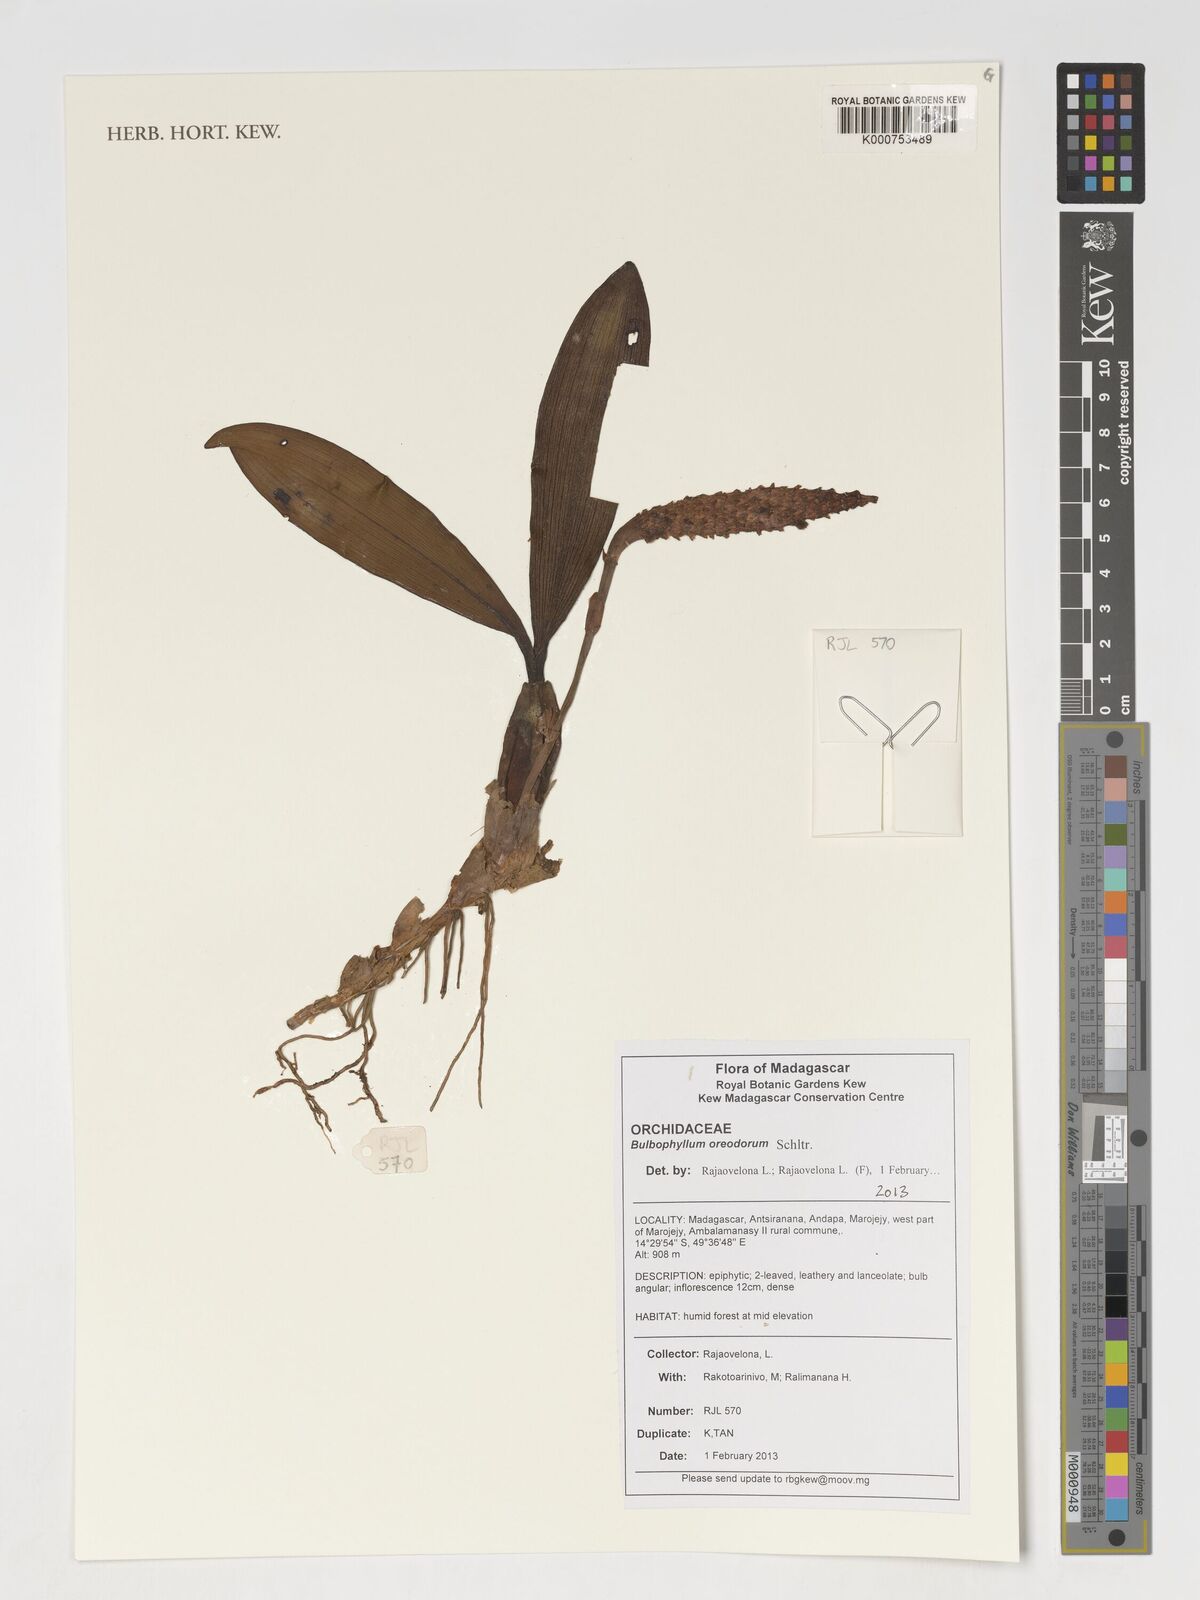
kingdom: Plantae
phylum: Tracheophyta
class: Liliopsida
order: Asparagales
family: Orchidaceae
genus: Bulbophyllum
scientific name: Bulbophyllum oreodorum
